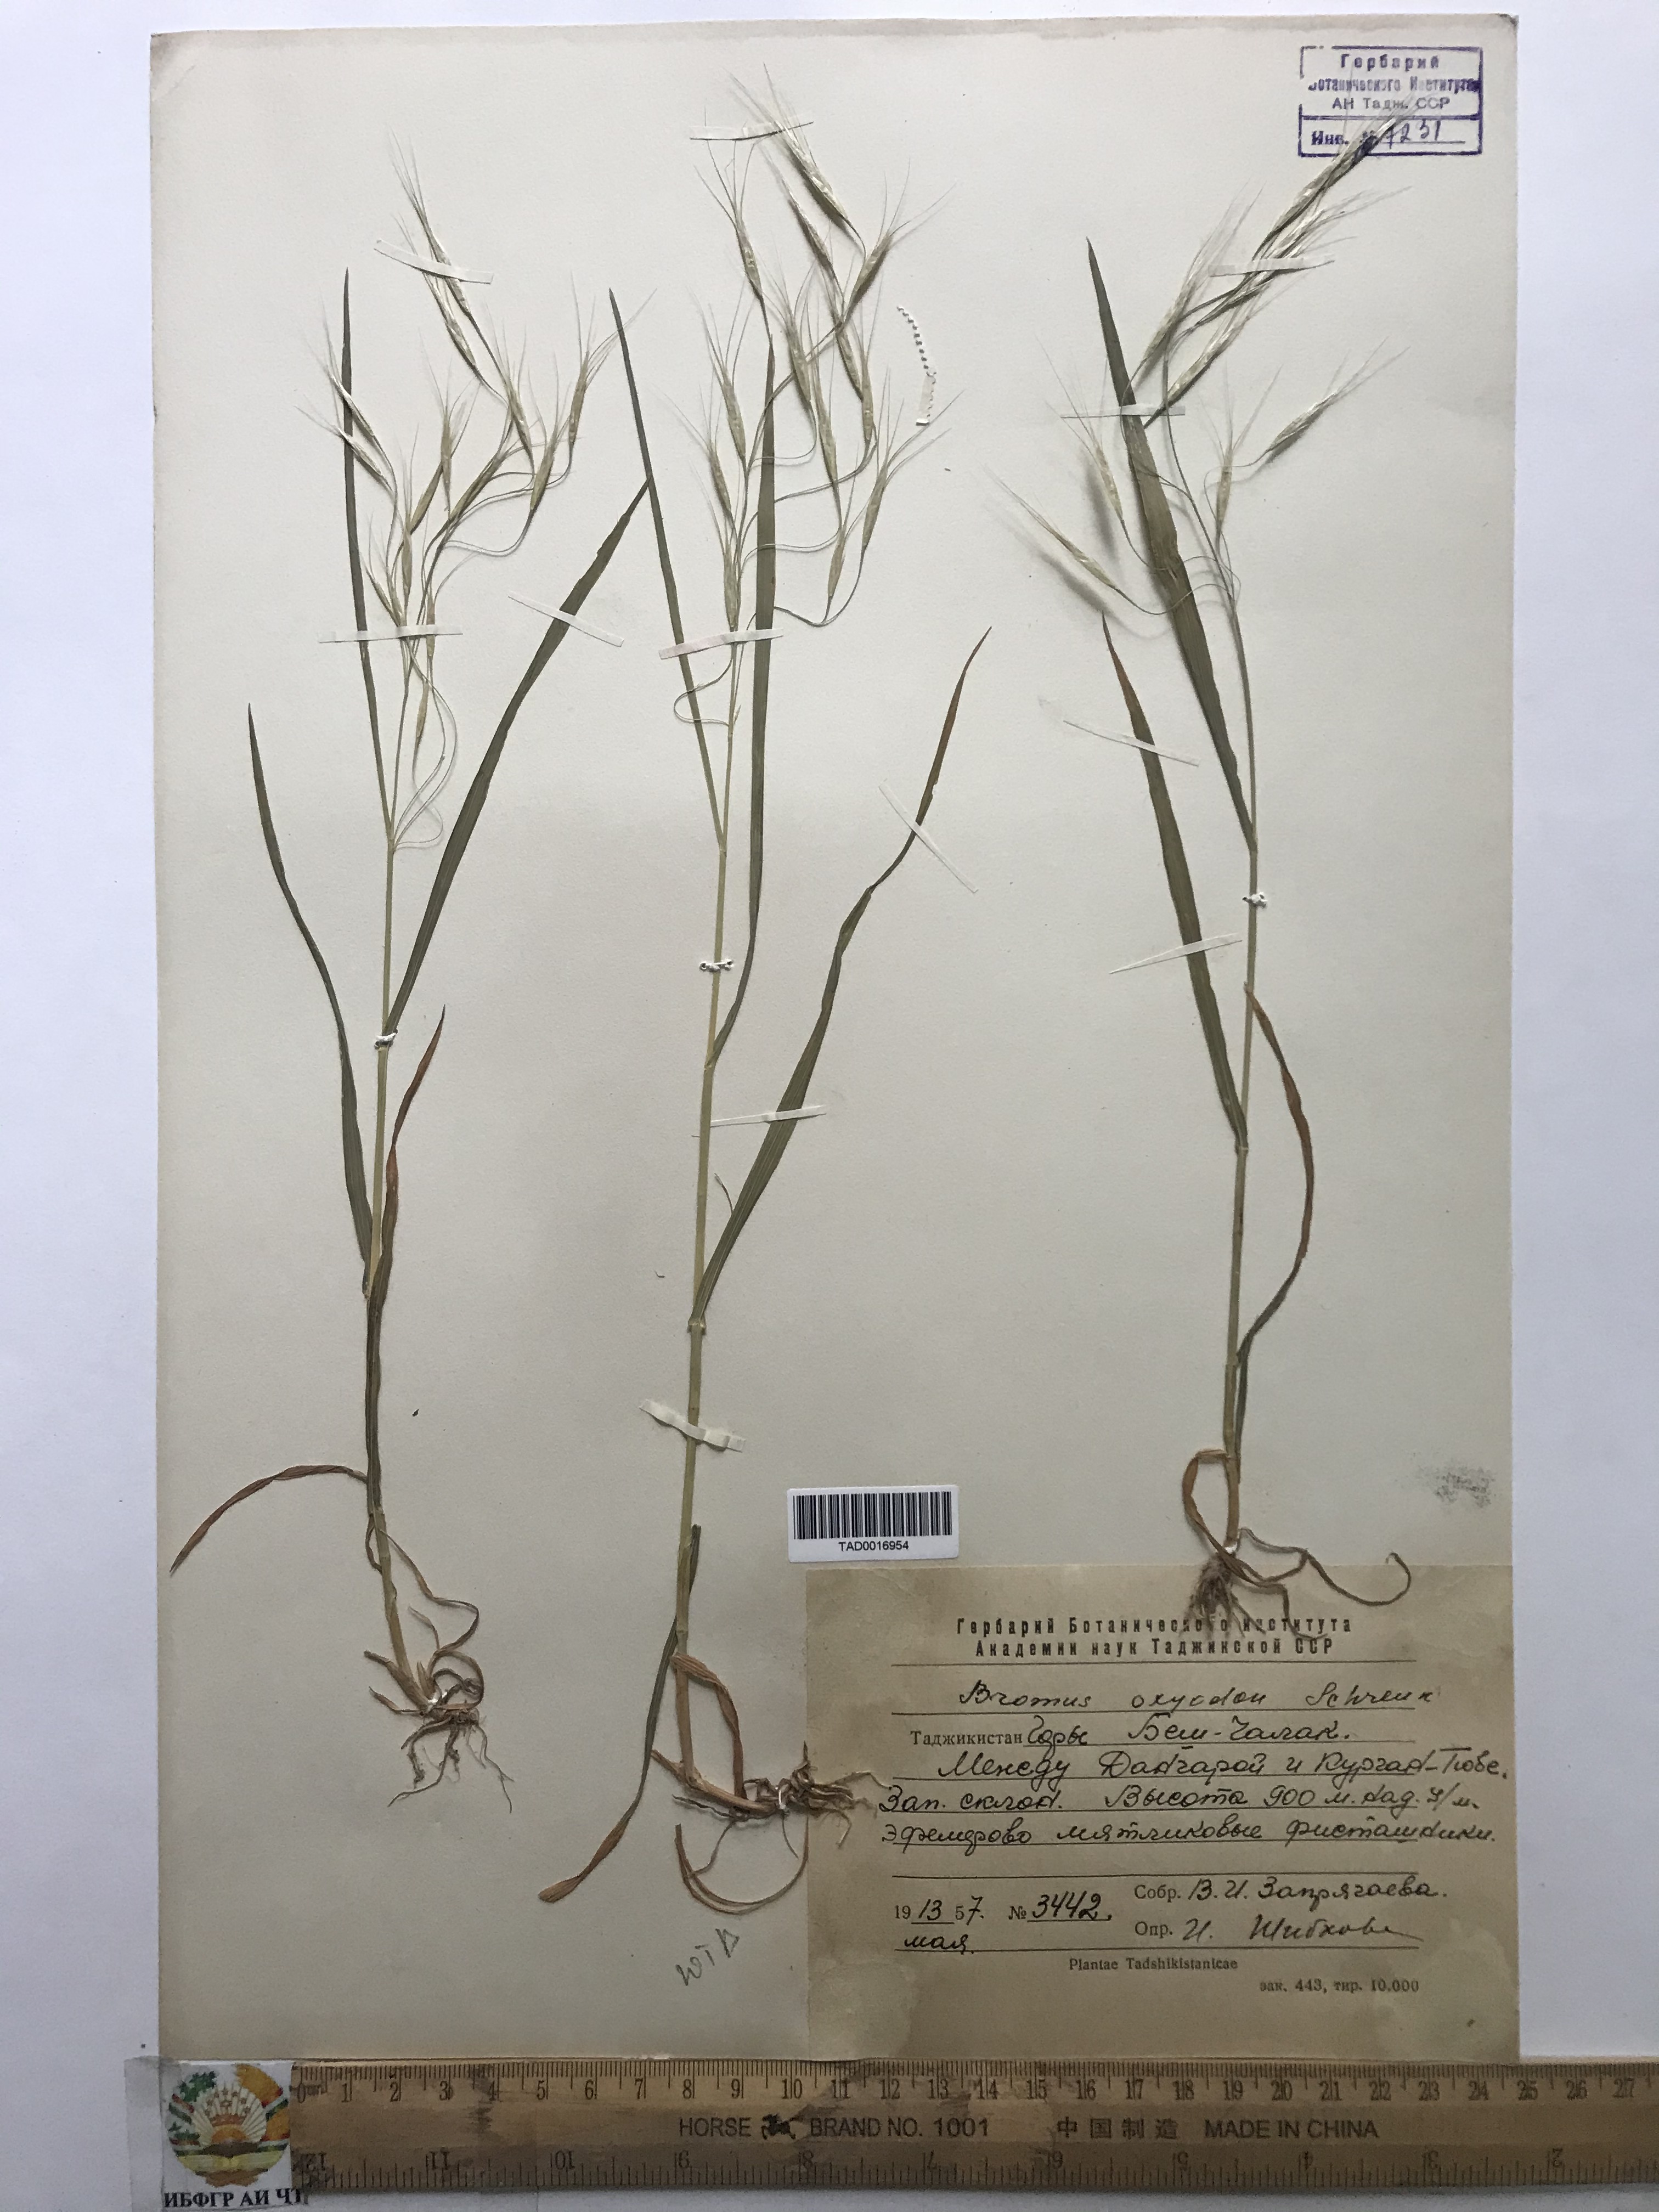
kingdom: Plantae
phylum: Tracheophyta
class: Liliopsida
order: Poales
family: Poaceae
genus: Bromus
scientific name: Bromus oxyodon
